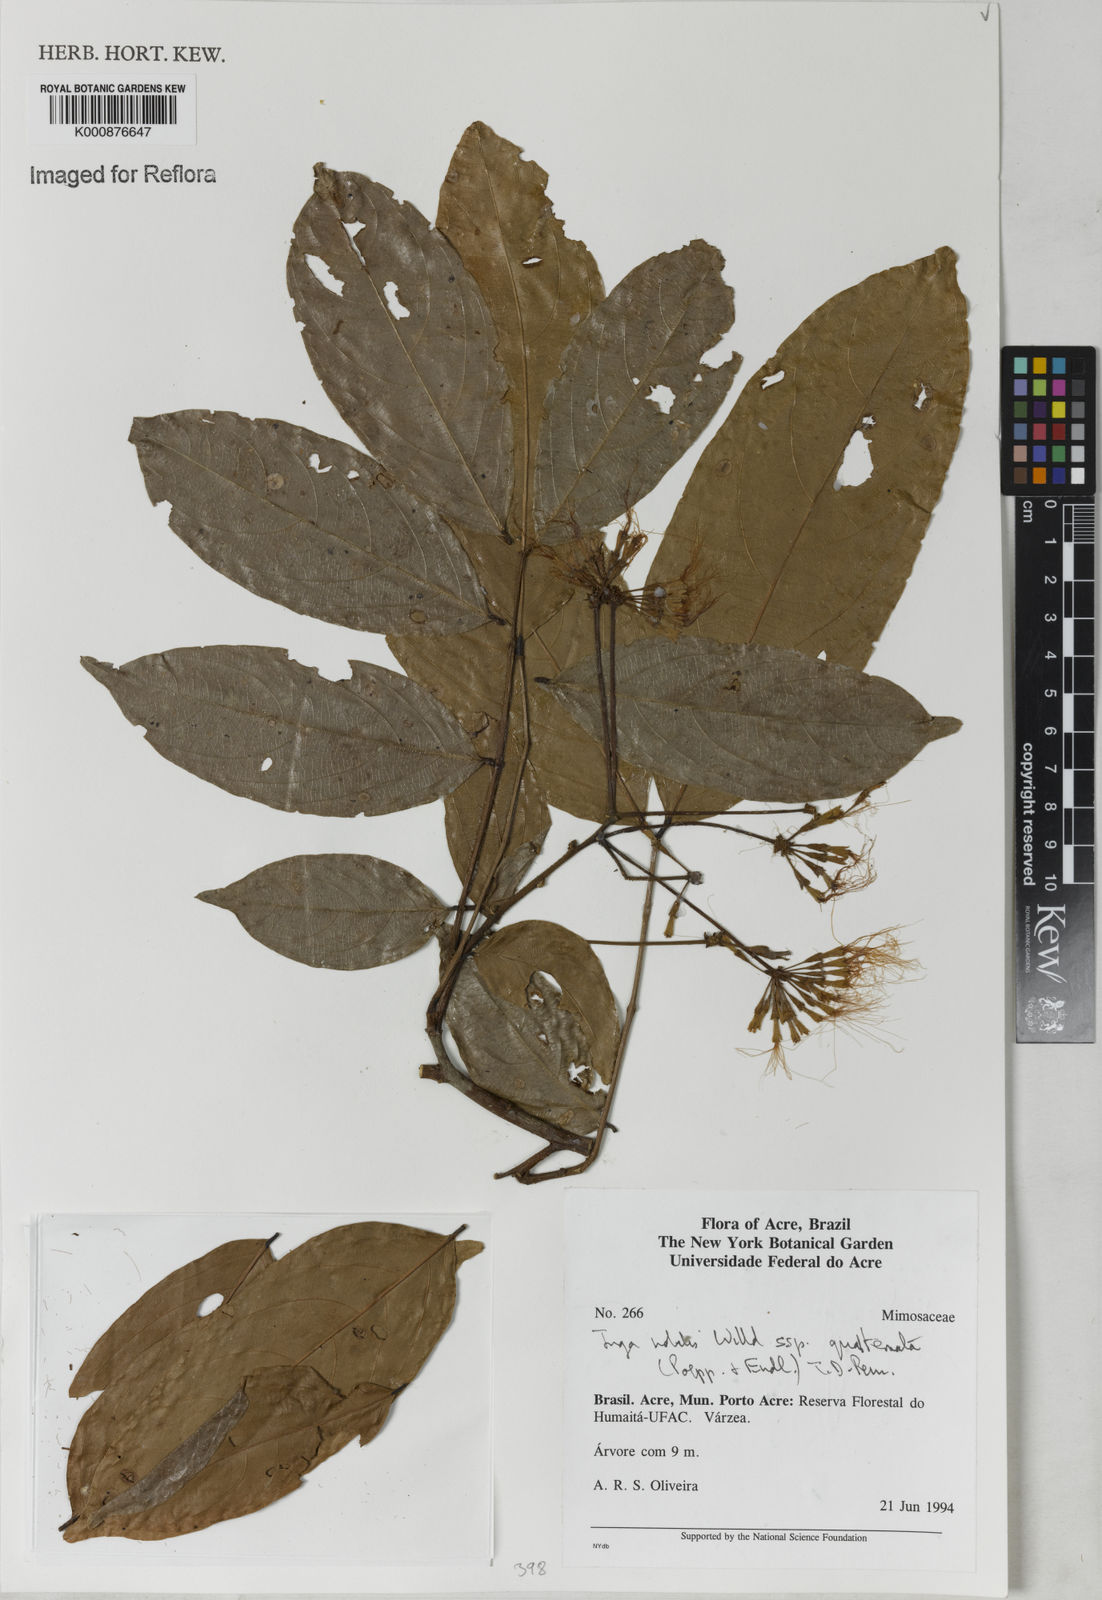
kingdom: Plantae
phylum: Tracheophyta
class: Magnoliopsida
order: Fabales
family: Fabaceae
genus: Inga
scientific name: Inga nobilis
